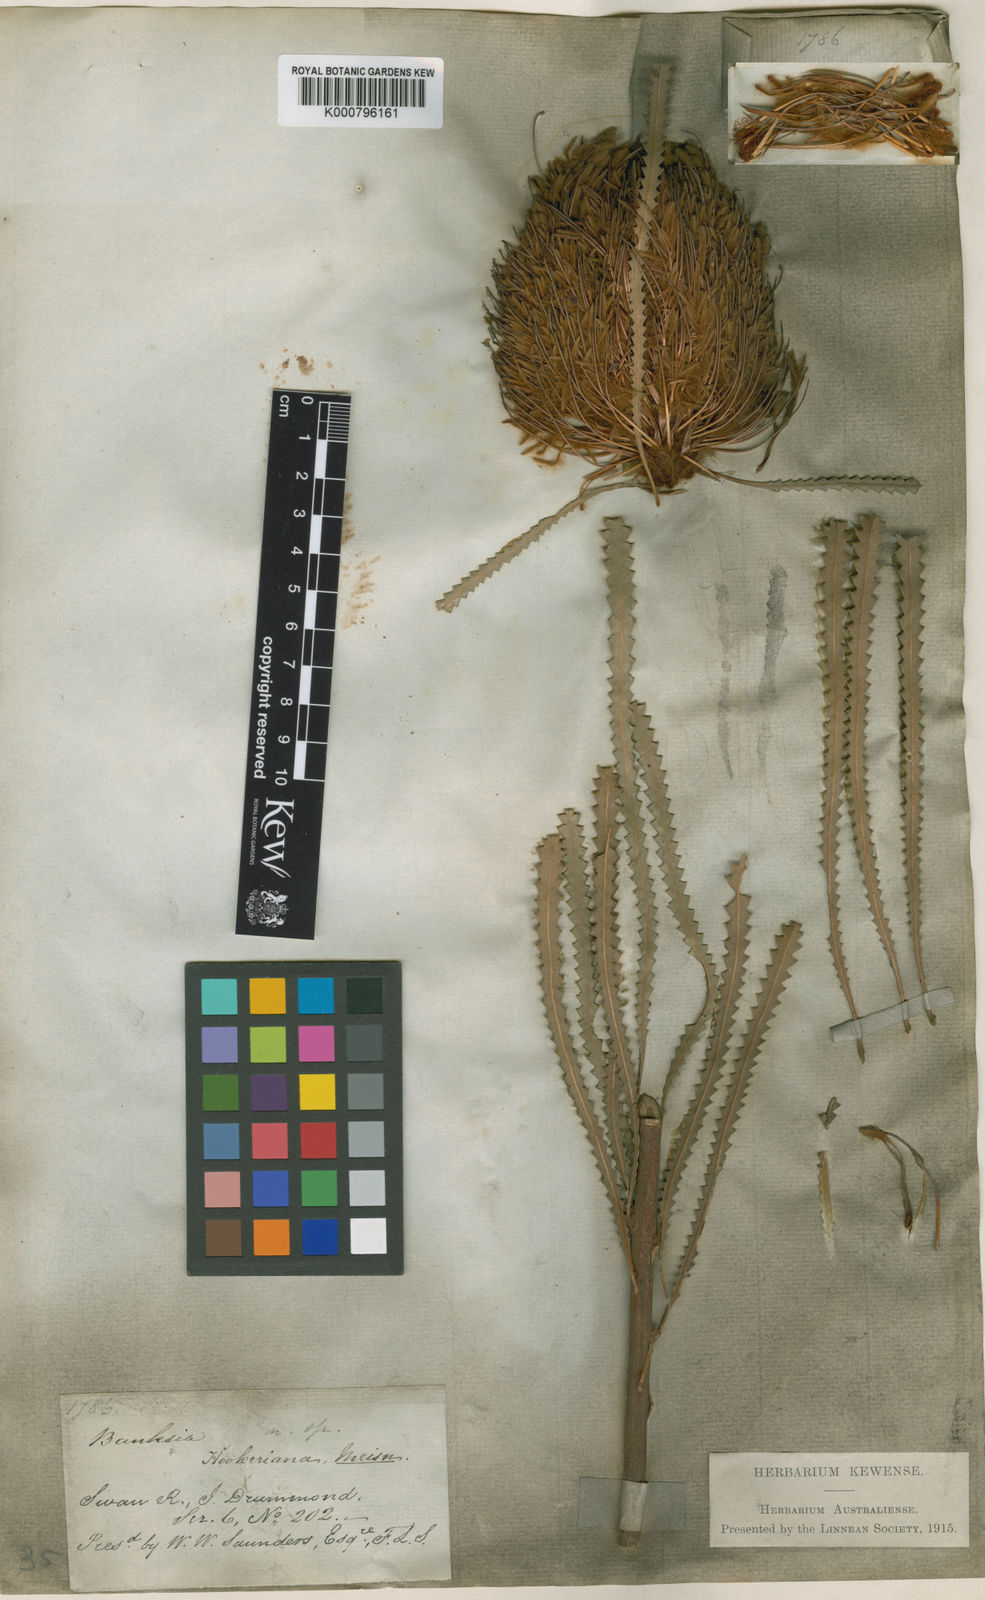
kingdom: Plantae
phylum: Tracheophyta
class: Magnoliopsida
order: Proteales
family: Proteaceae
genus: Banksia
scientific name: Banksia hookeriana
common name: Hooker's banksia
